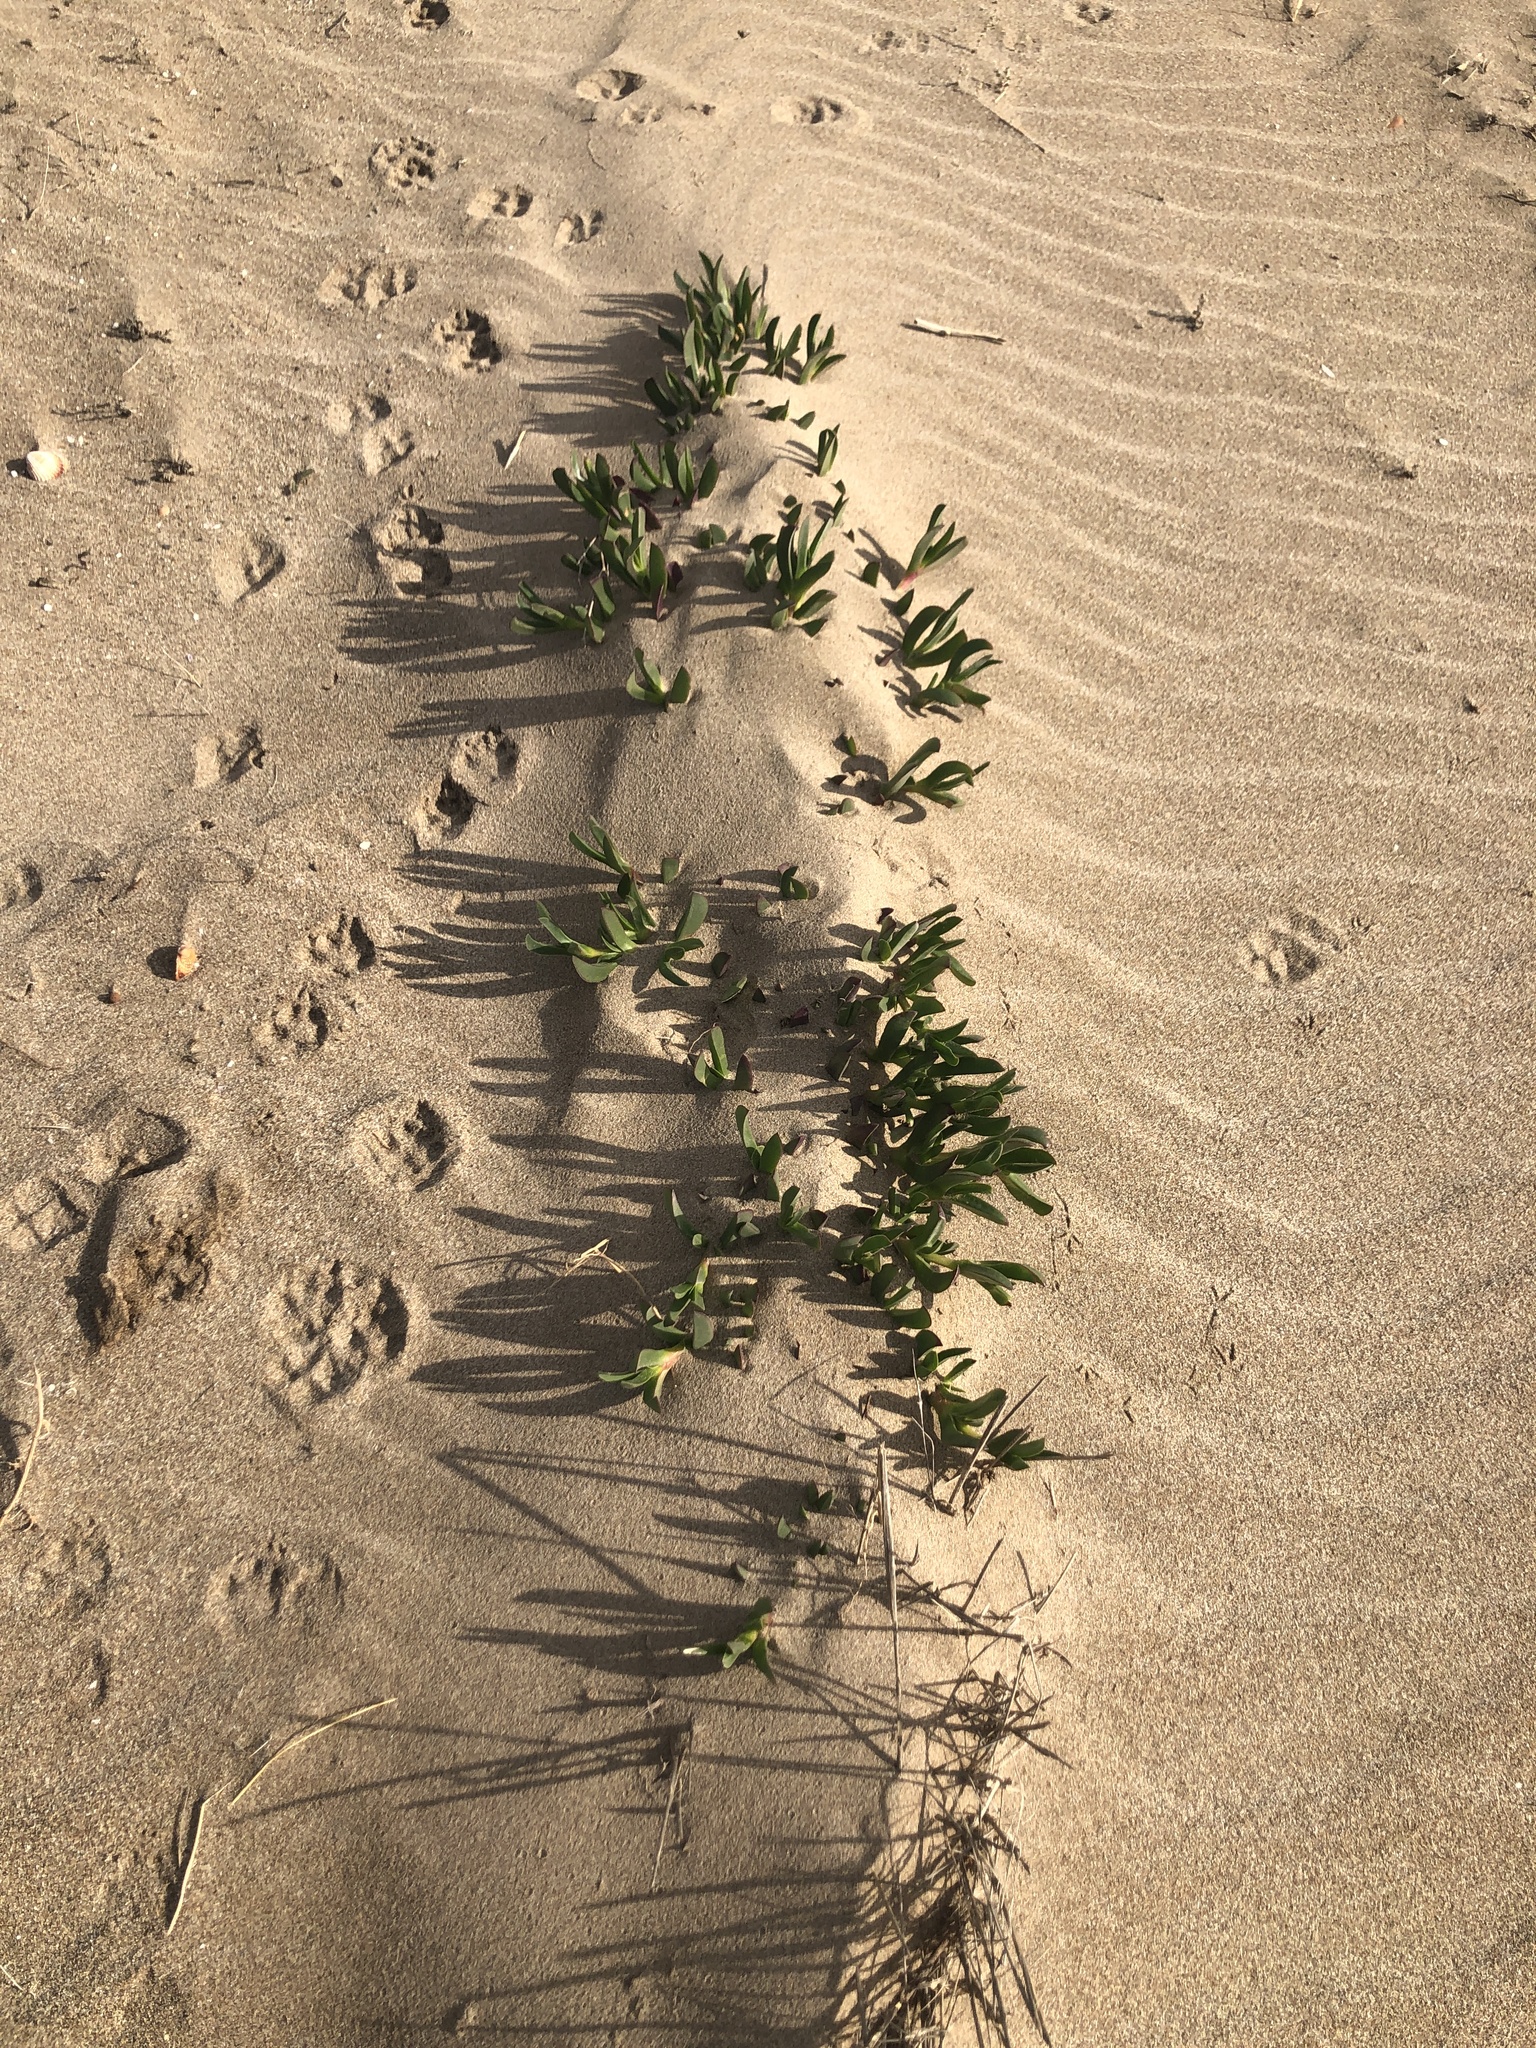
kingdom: Plantae
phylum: Tracheophyta
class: Magnoliopsida
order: Caryophyllales
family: Aizoaceae
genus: Carpobrotus
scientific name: Carpobrotus edulis
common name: Hottentot-fig
